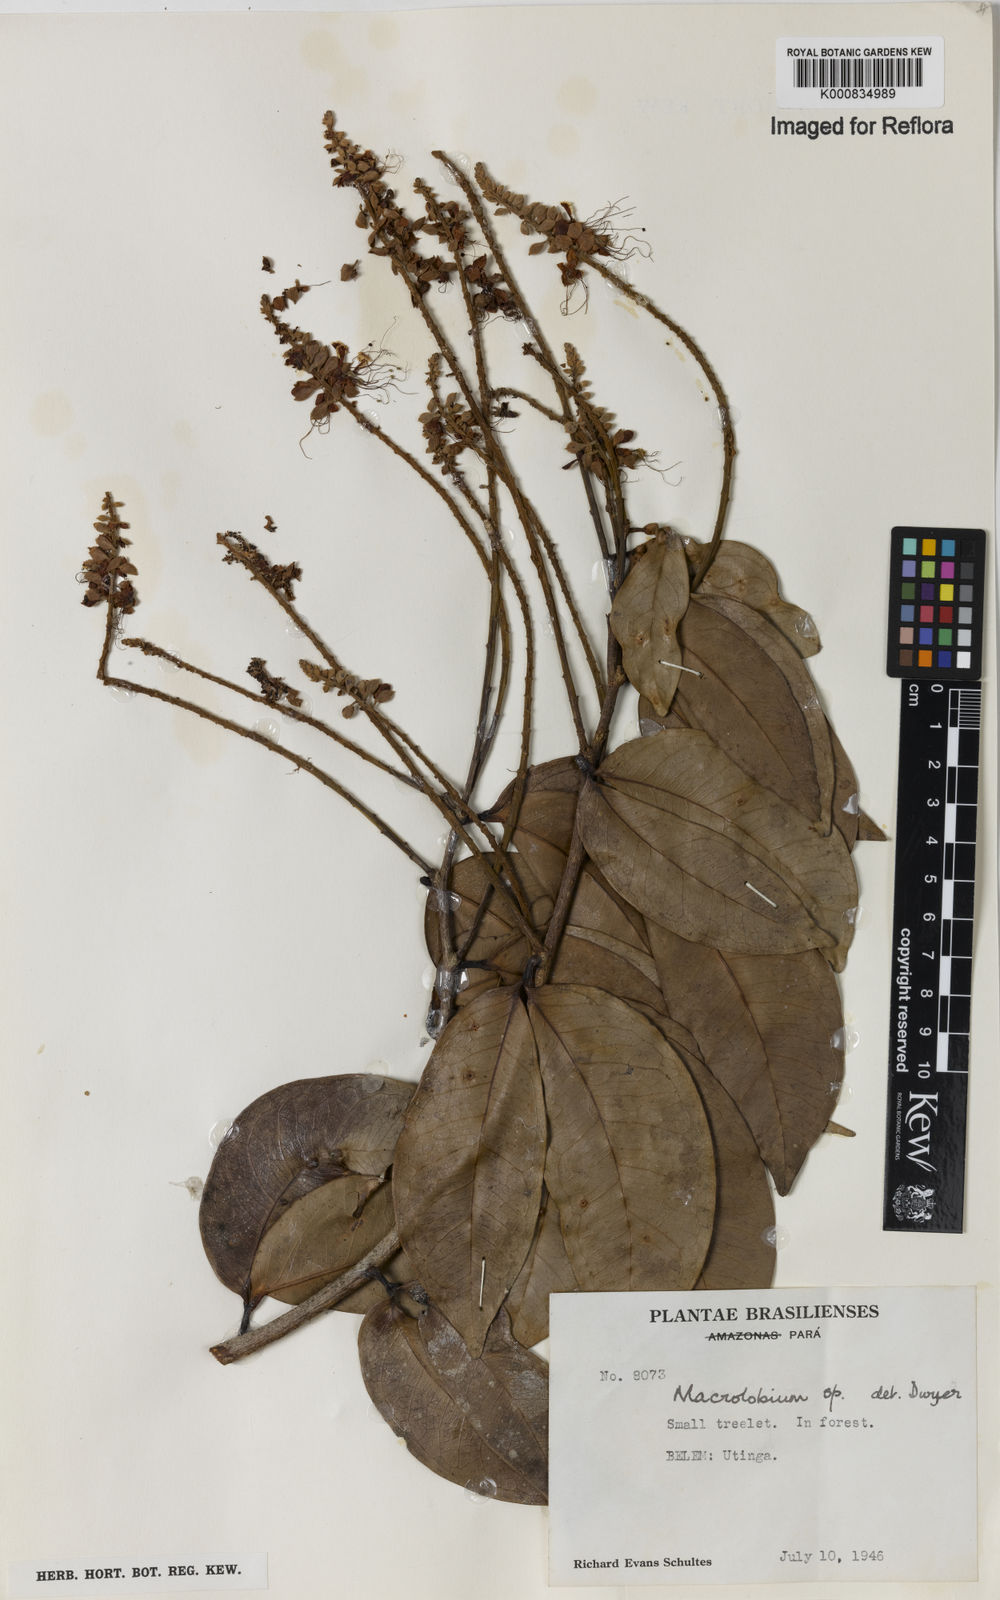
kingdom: Plantae
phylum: Tracheophyta
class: Magnoliopsida
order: Fabales
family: Fabaceae
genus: Macrolobium
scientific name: Macrolobium
